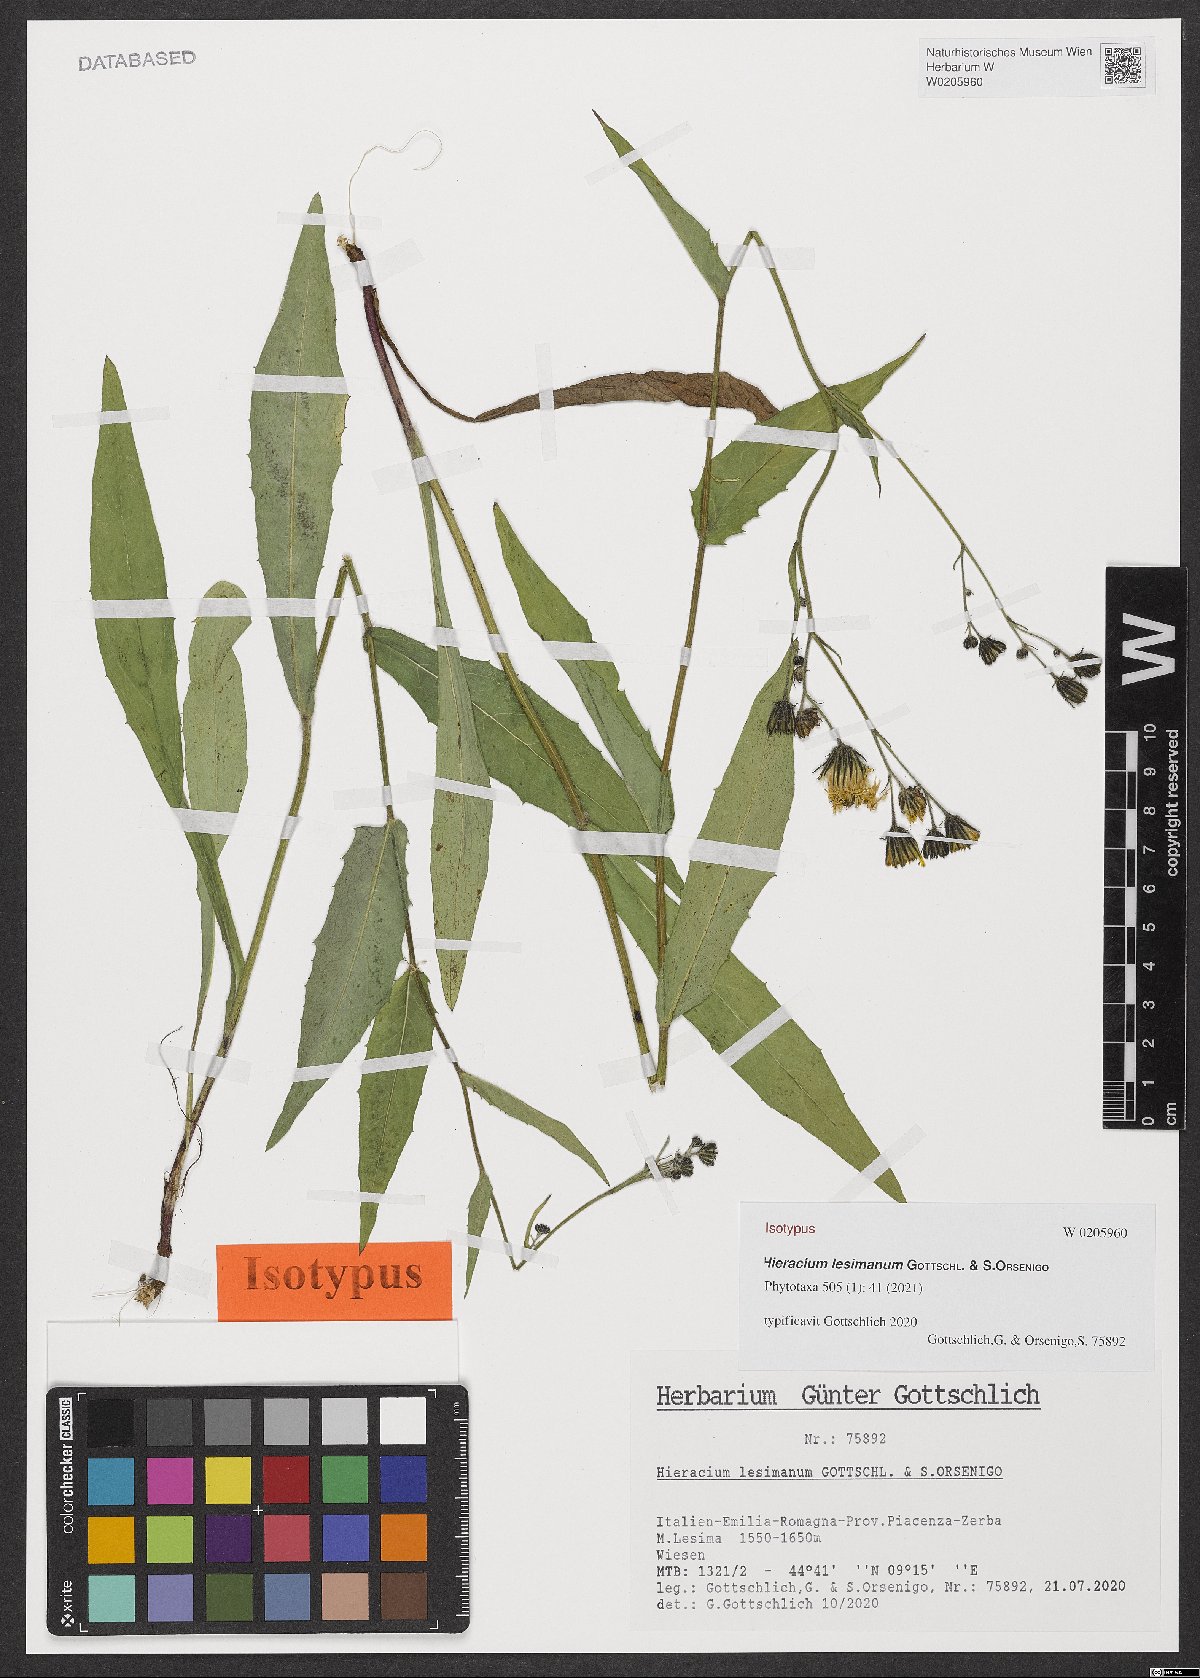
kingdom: Plantae
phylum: Tracheophyta
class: Magnoliopsida
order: Asterales
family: Asteraceae
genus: Hieracium
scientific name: Hieracium lesimanum
